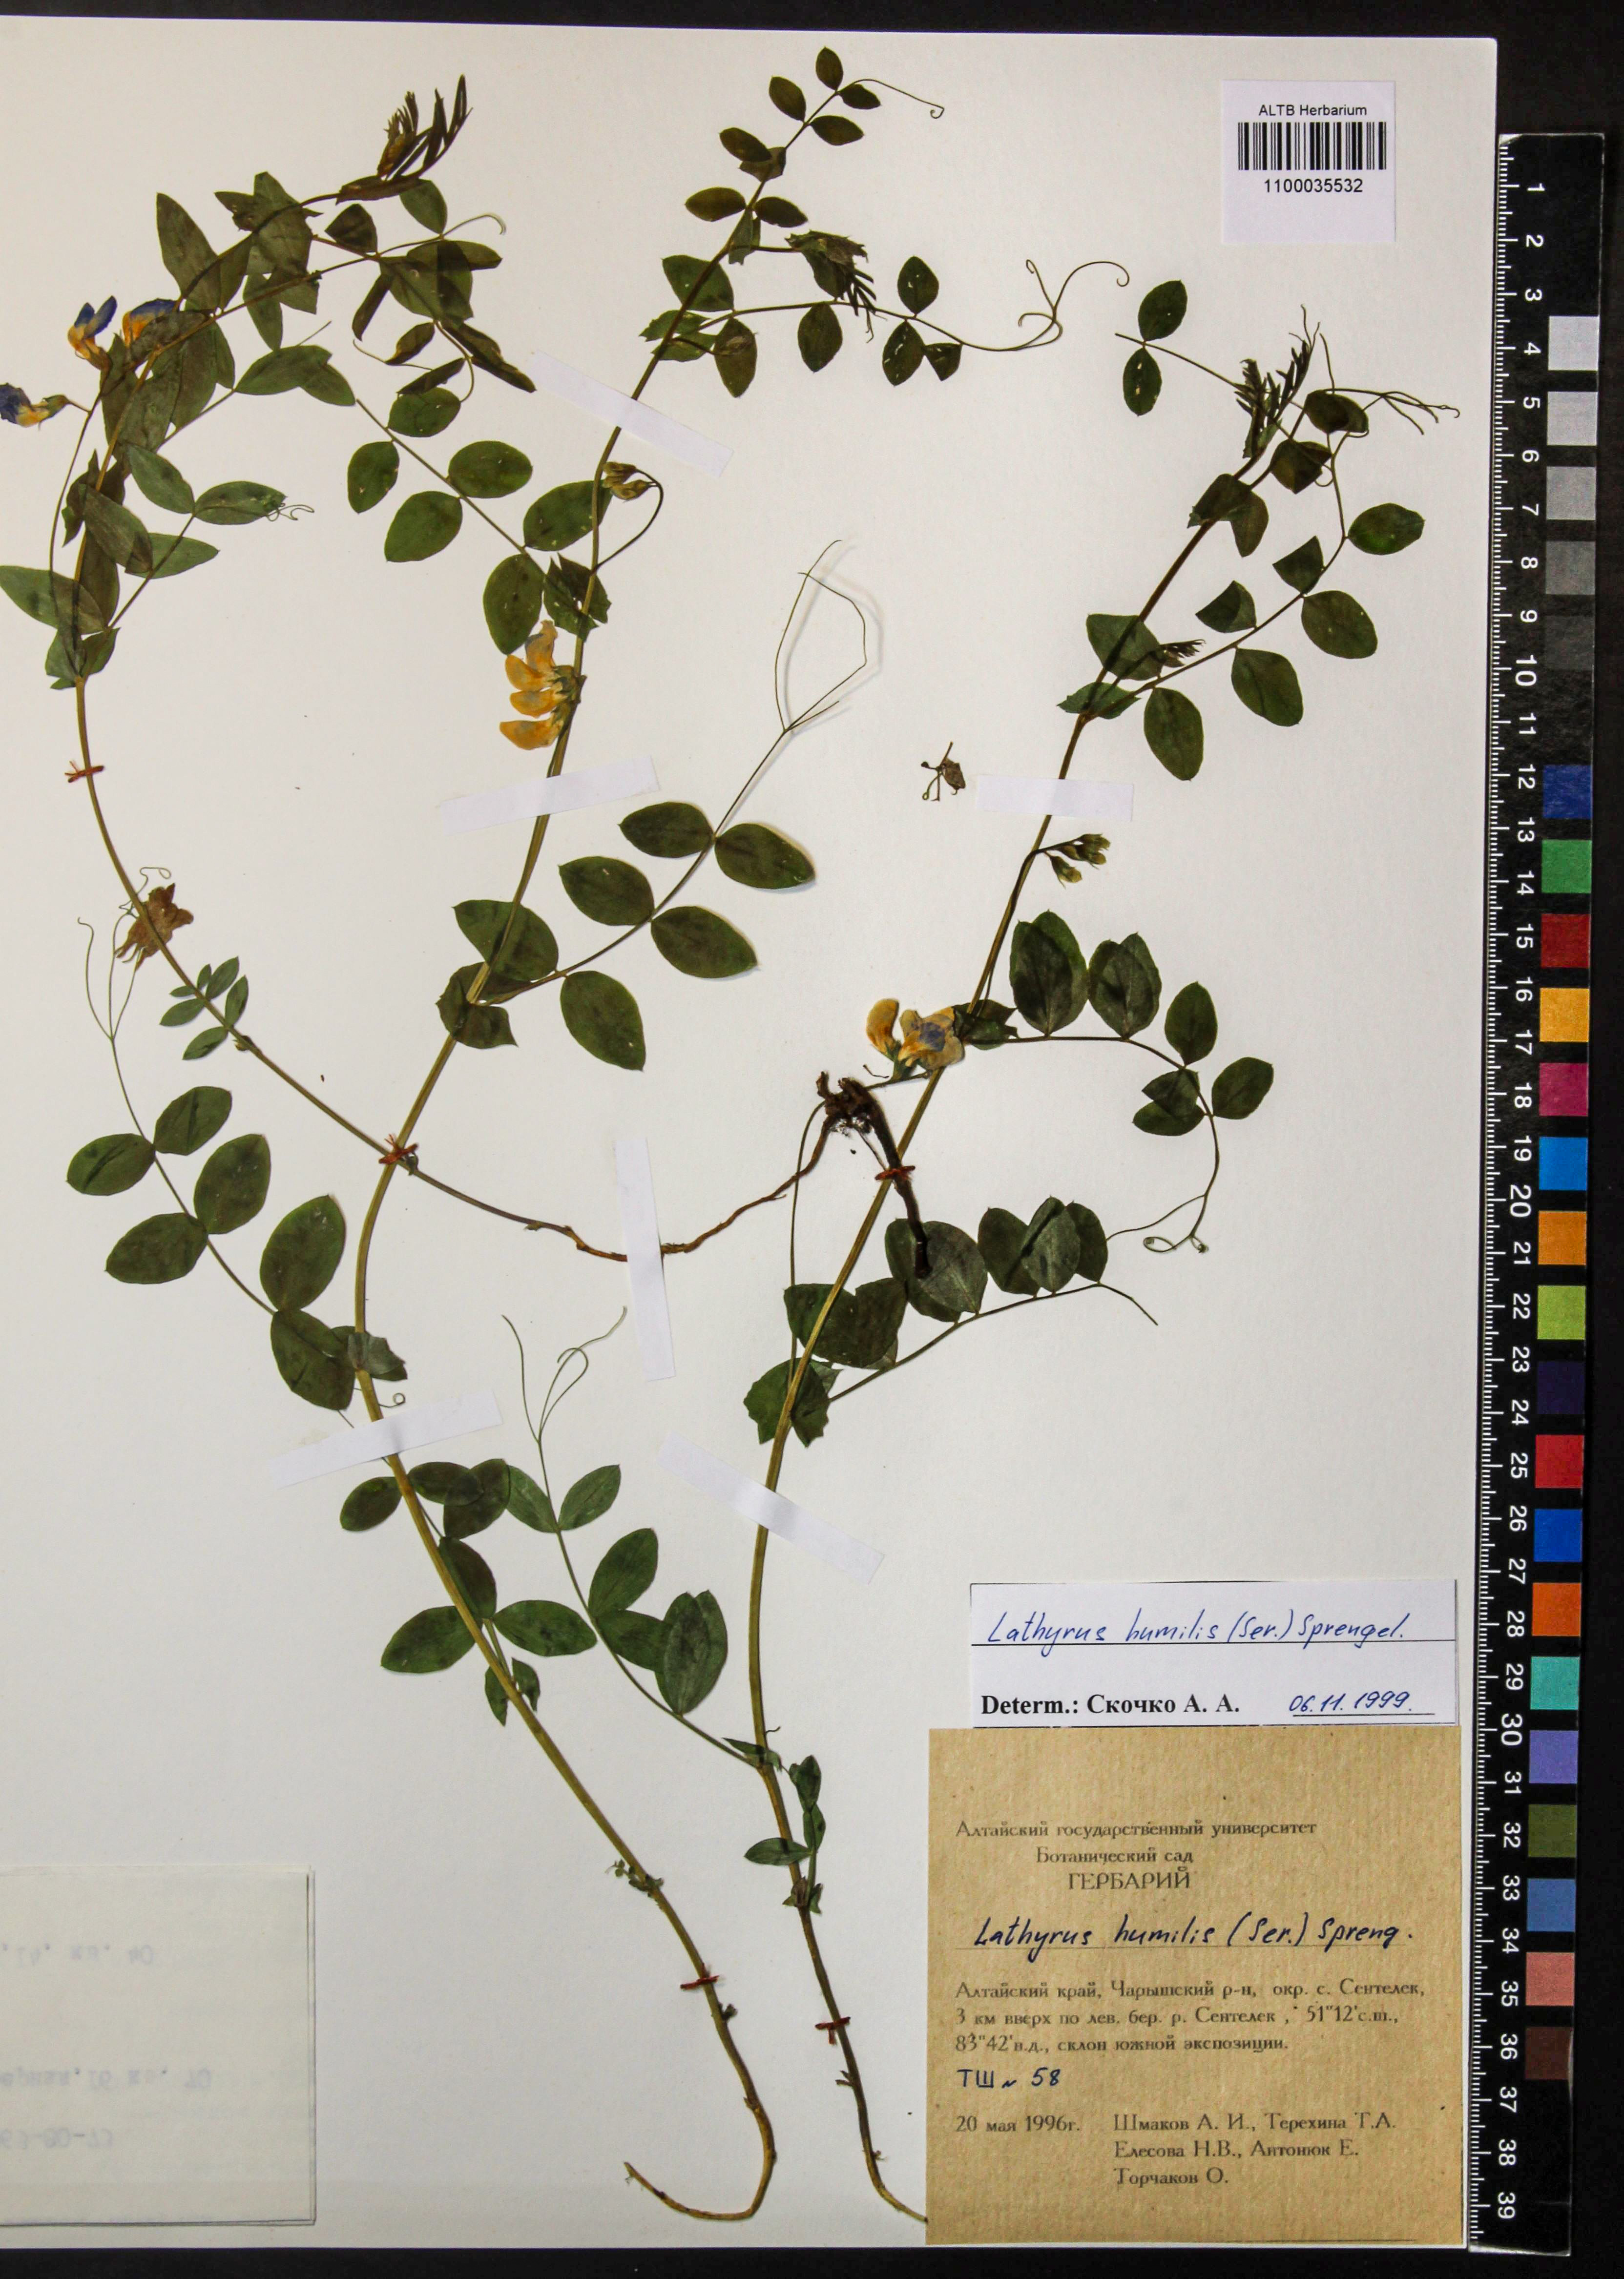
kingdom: Plantae
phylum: Tracheophyta
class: Magnoliopsida
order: Fabales
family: Fabaceae
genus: Lathyrus
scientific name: Lathyrus humilis
